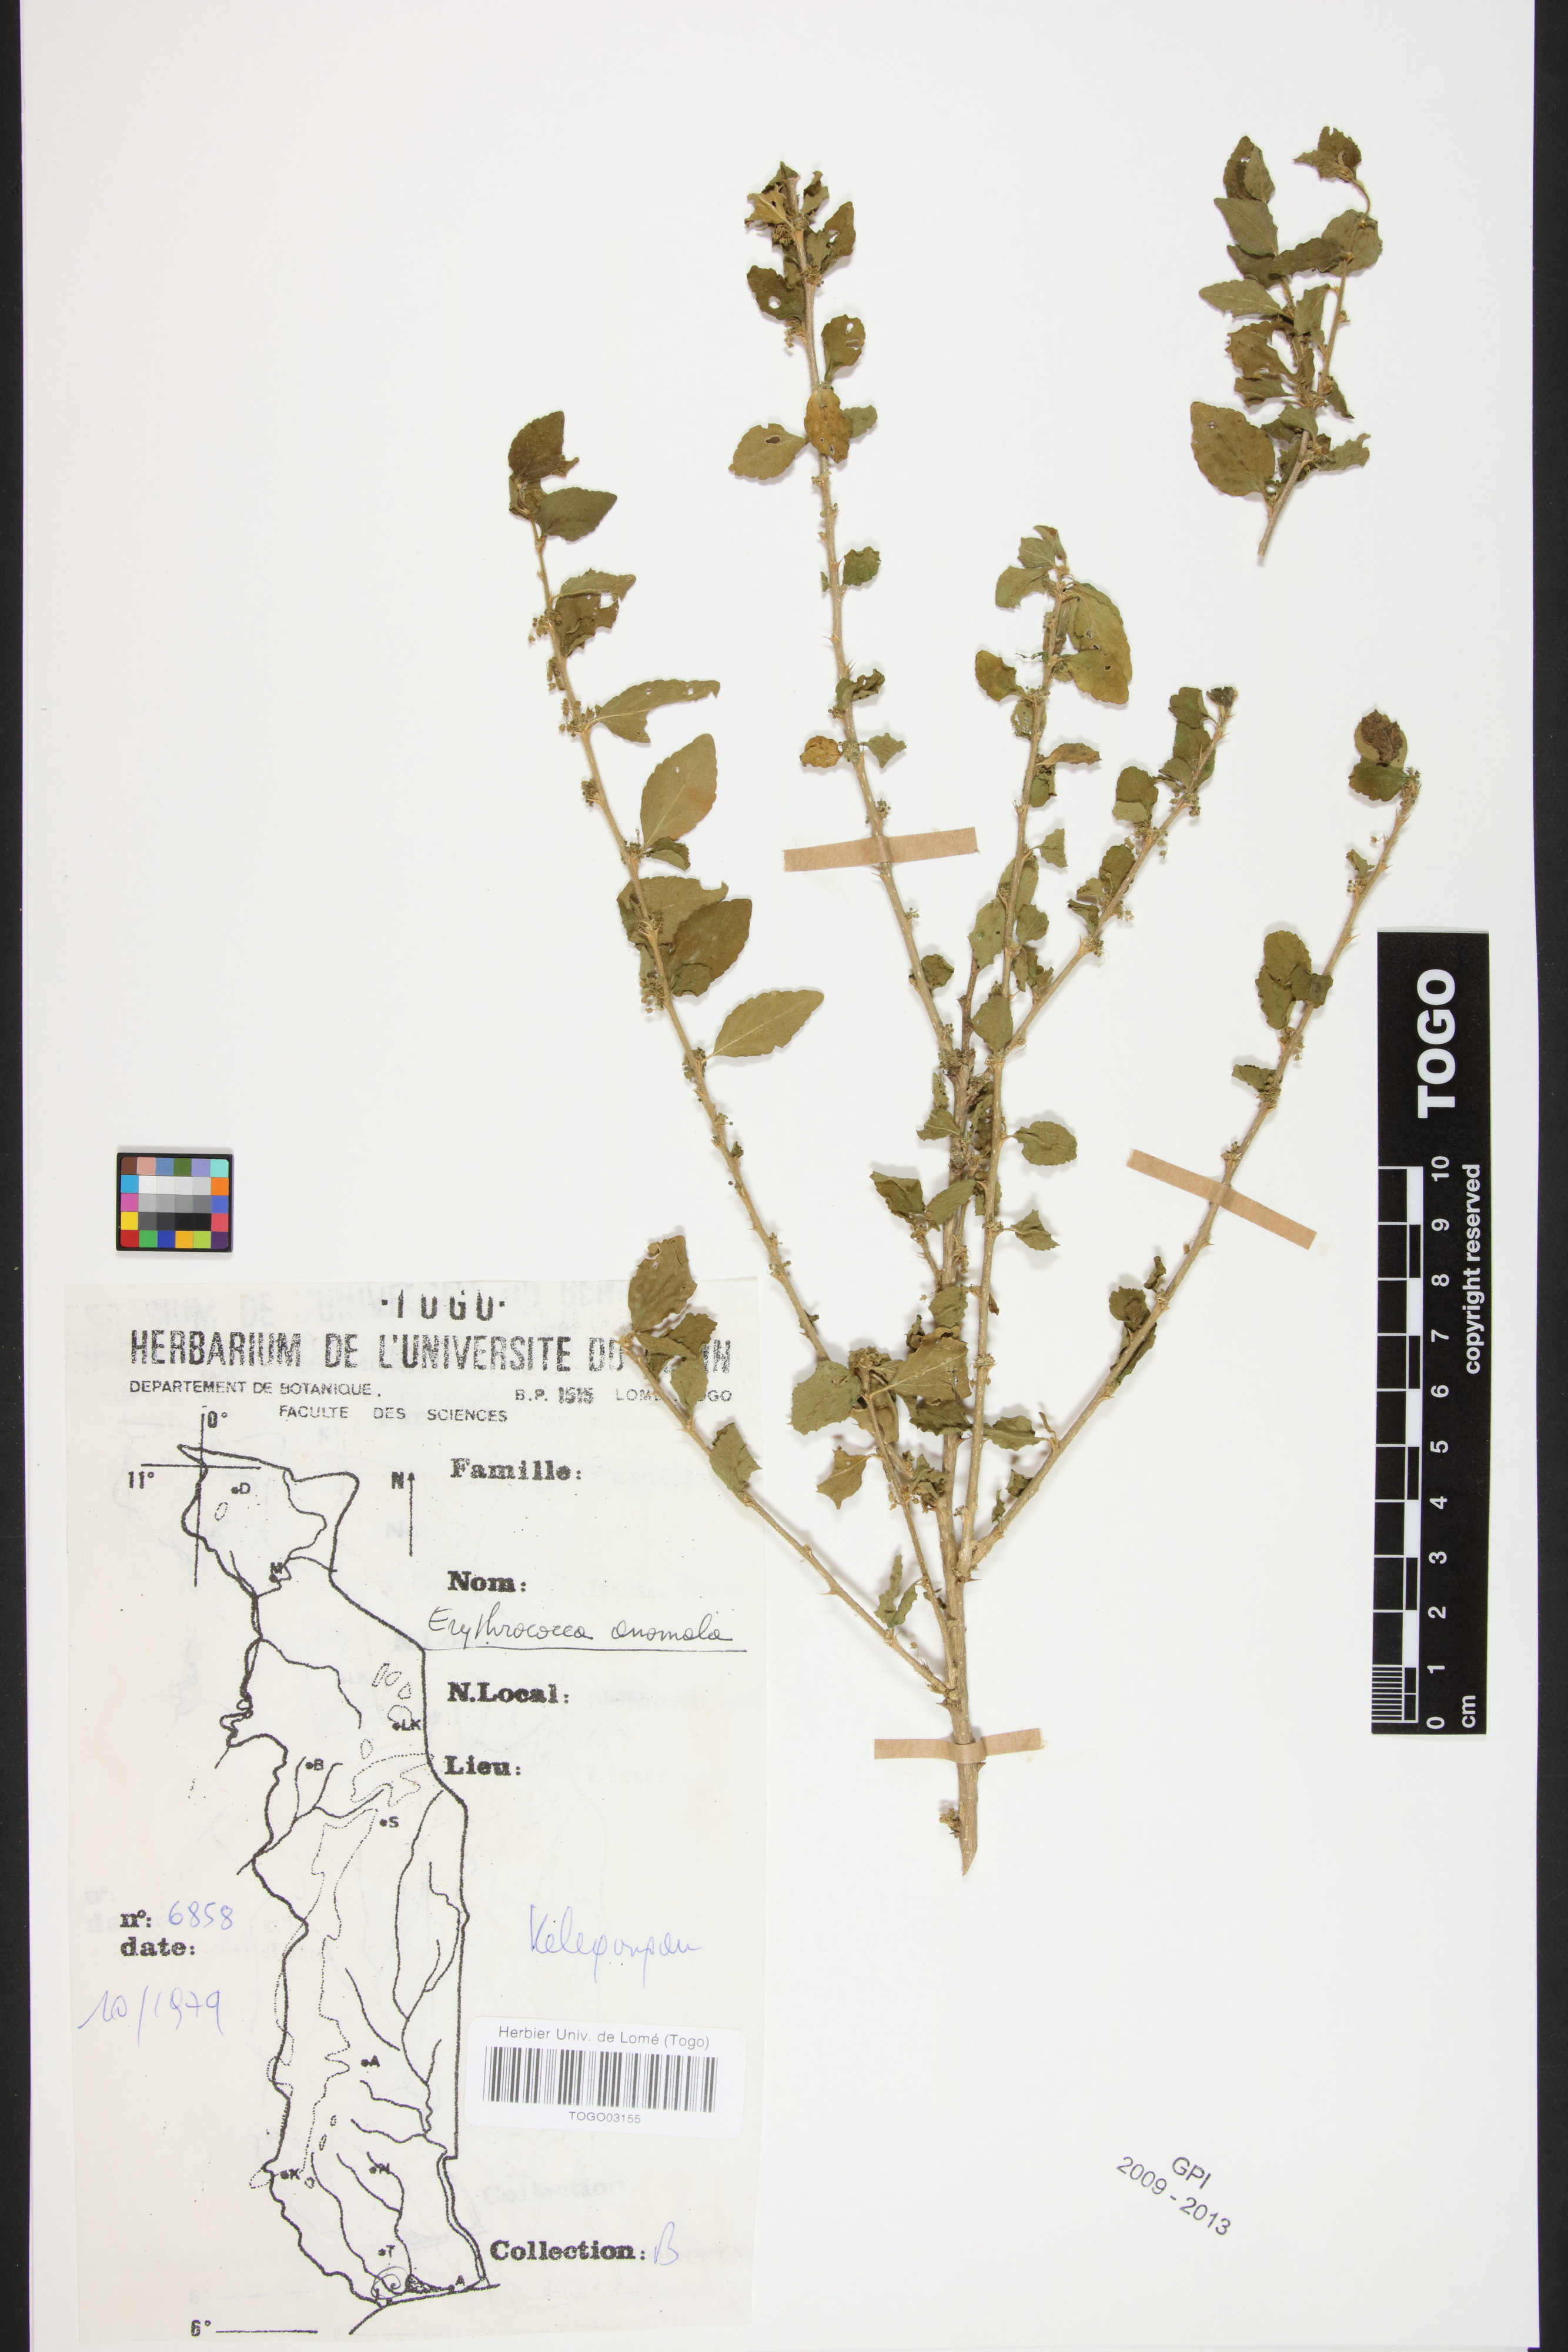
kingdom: Plantae
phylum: Tracheophyta
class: Magnoliopsida
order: Malpighiales
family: Euphorbiaceae
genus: Erythrococca
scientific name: Erythrococca anomala
